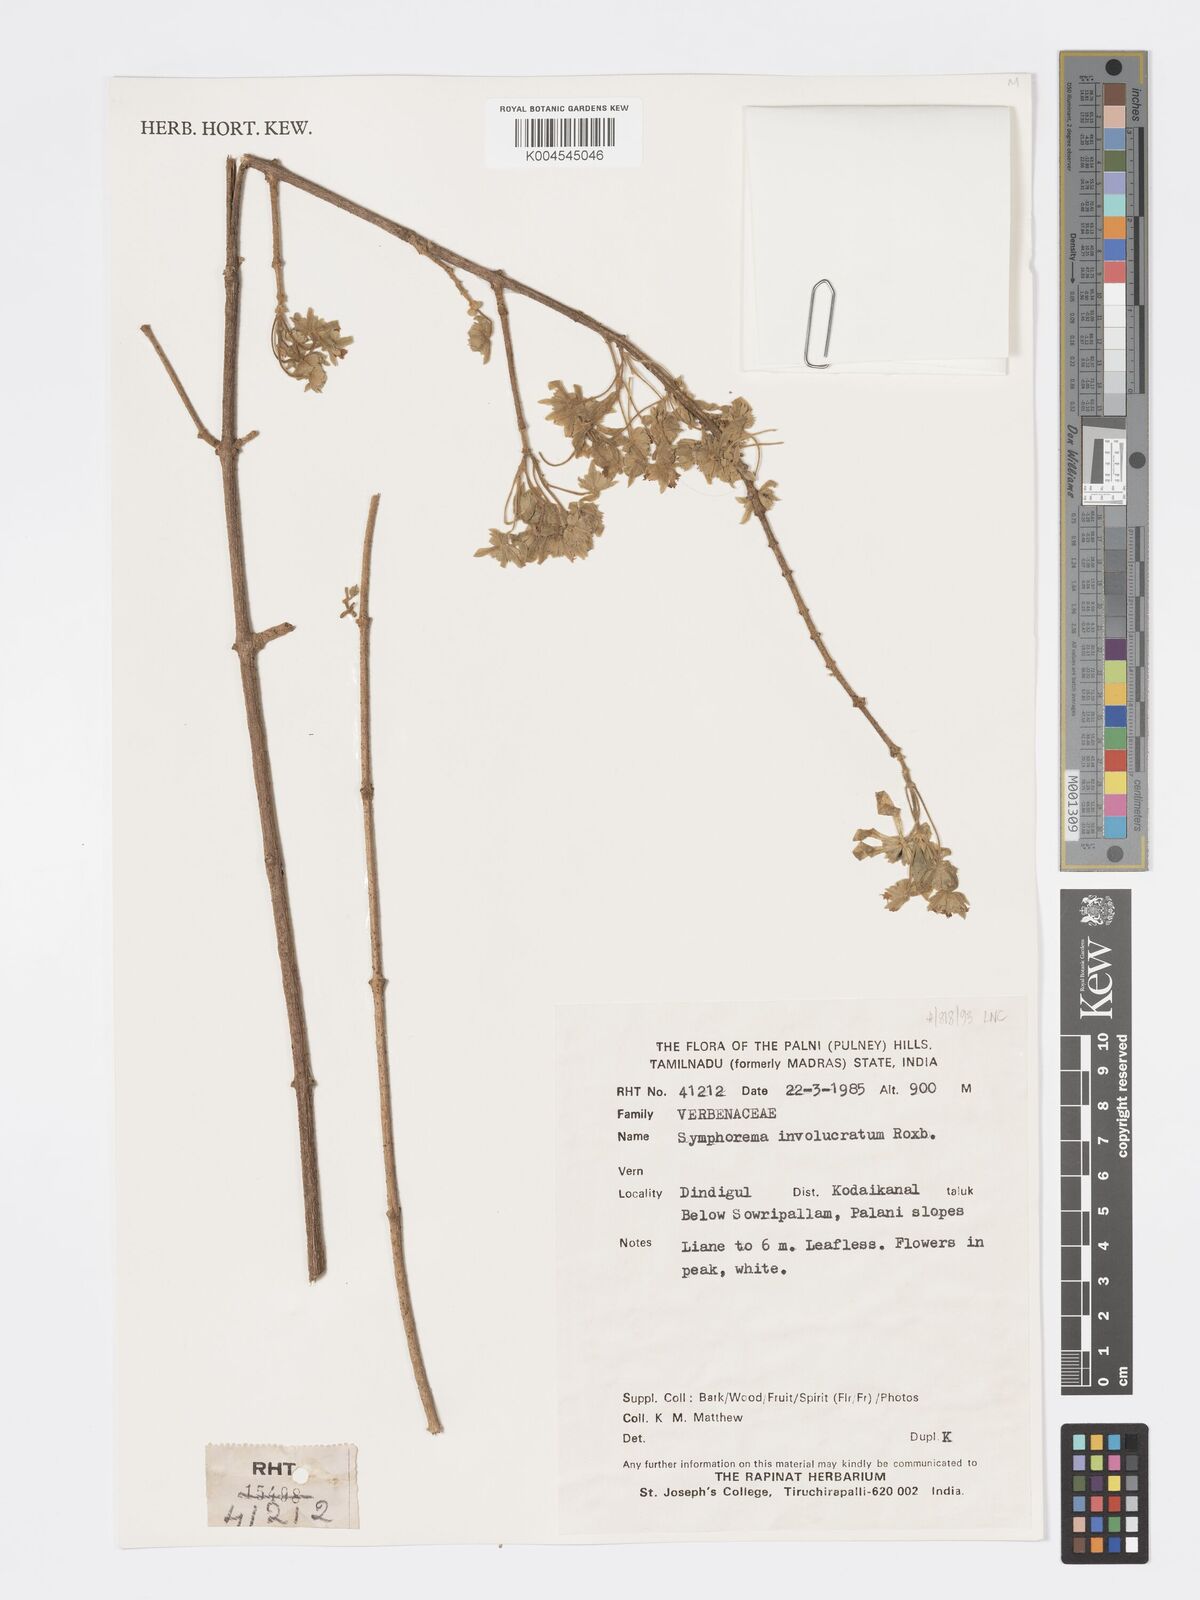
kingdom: Plantae
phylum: Tracheophyta
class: Magnoliopsida
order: Lamiales
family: Lamiaceae
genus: Symphorema
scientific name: Symphorema involucratum
